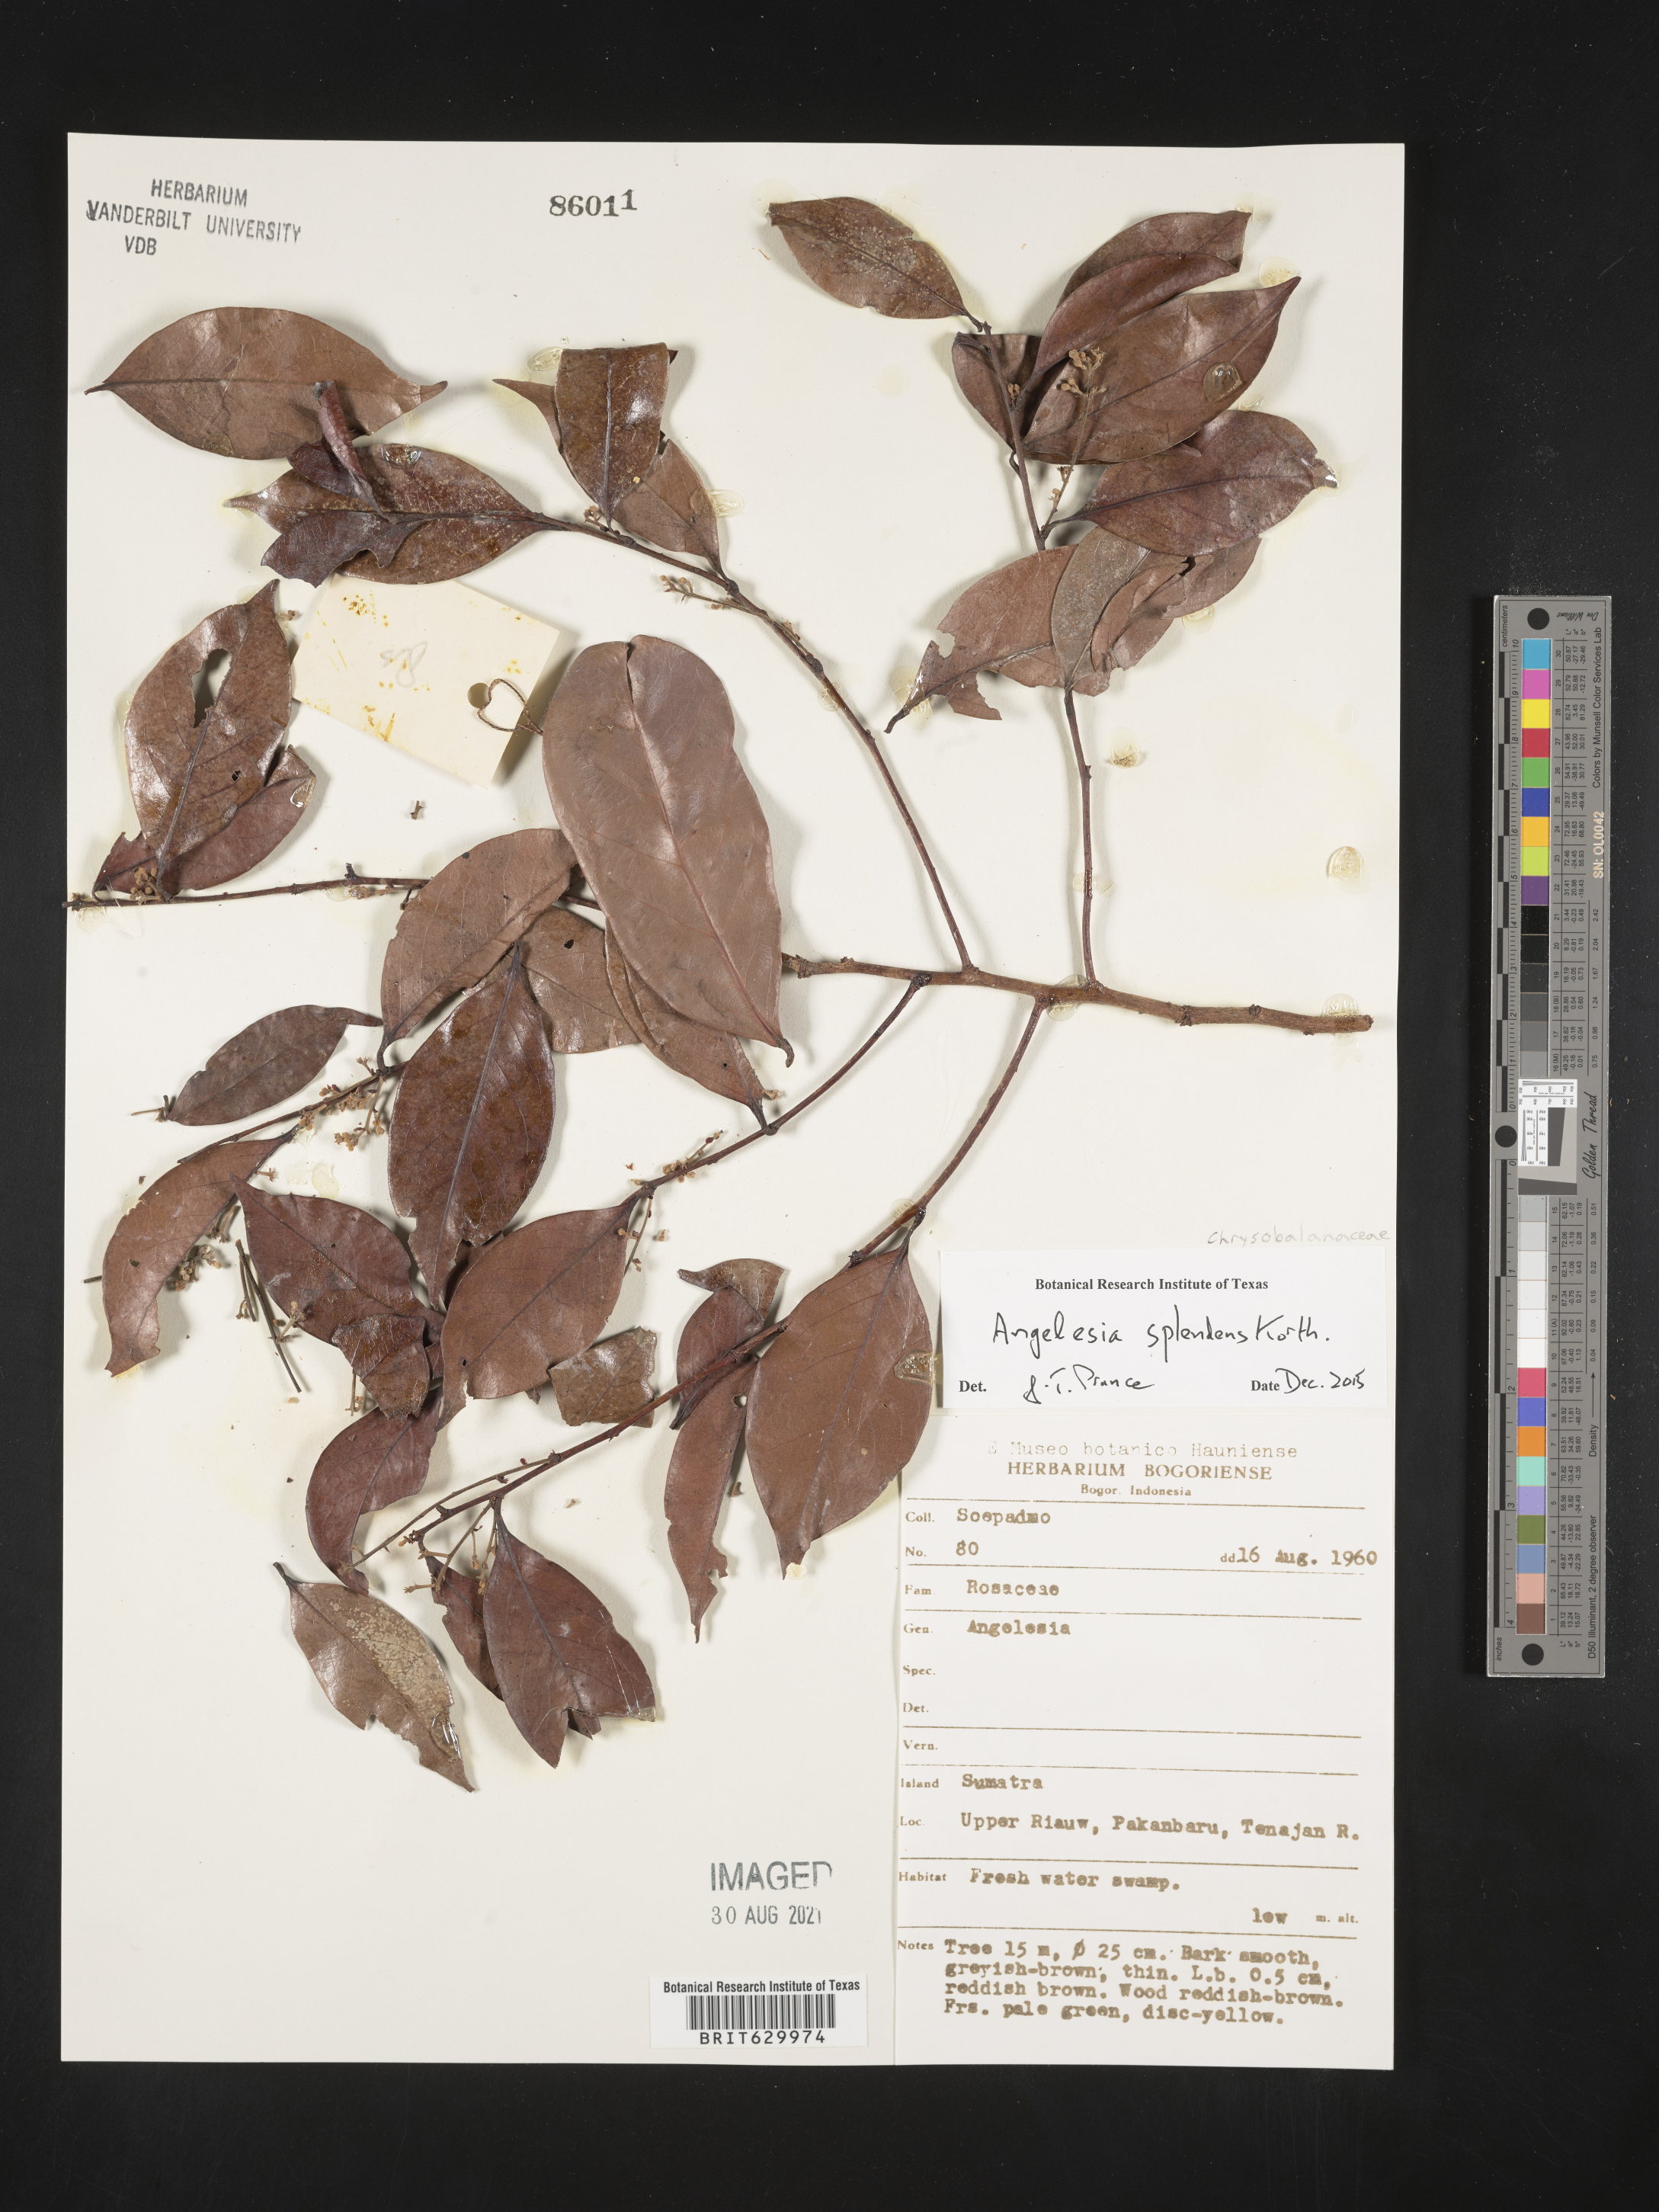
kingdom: Plantae
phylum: Tracheophyta
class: Magnoliopsida
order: Malpighiales
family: Chrysobalanaceae
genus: Angelesia
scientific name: Angelesia splendens
